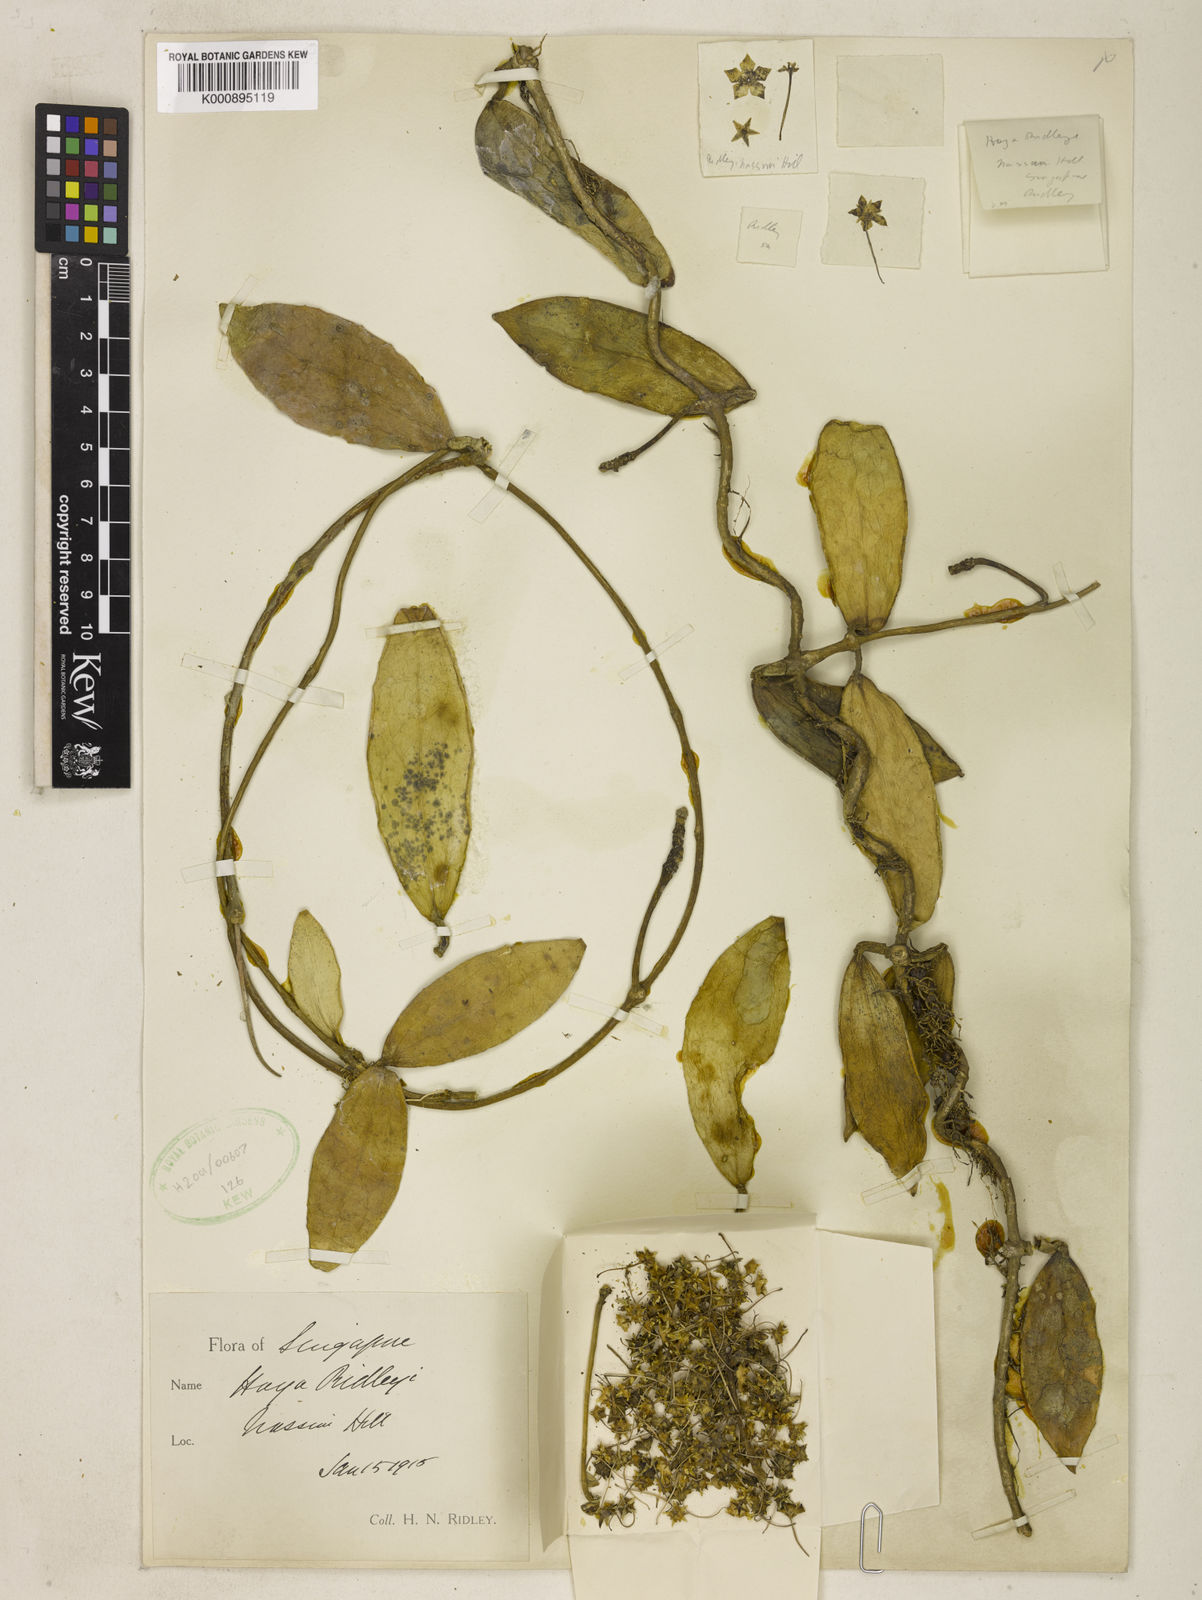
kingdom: Plantae
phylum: Tracheophyta
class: Magnoliopsida
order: Gentianales
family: Apocynaceae
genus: Hoya
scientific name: Hoya verticillata
